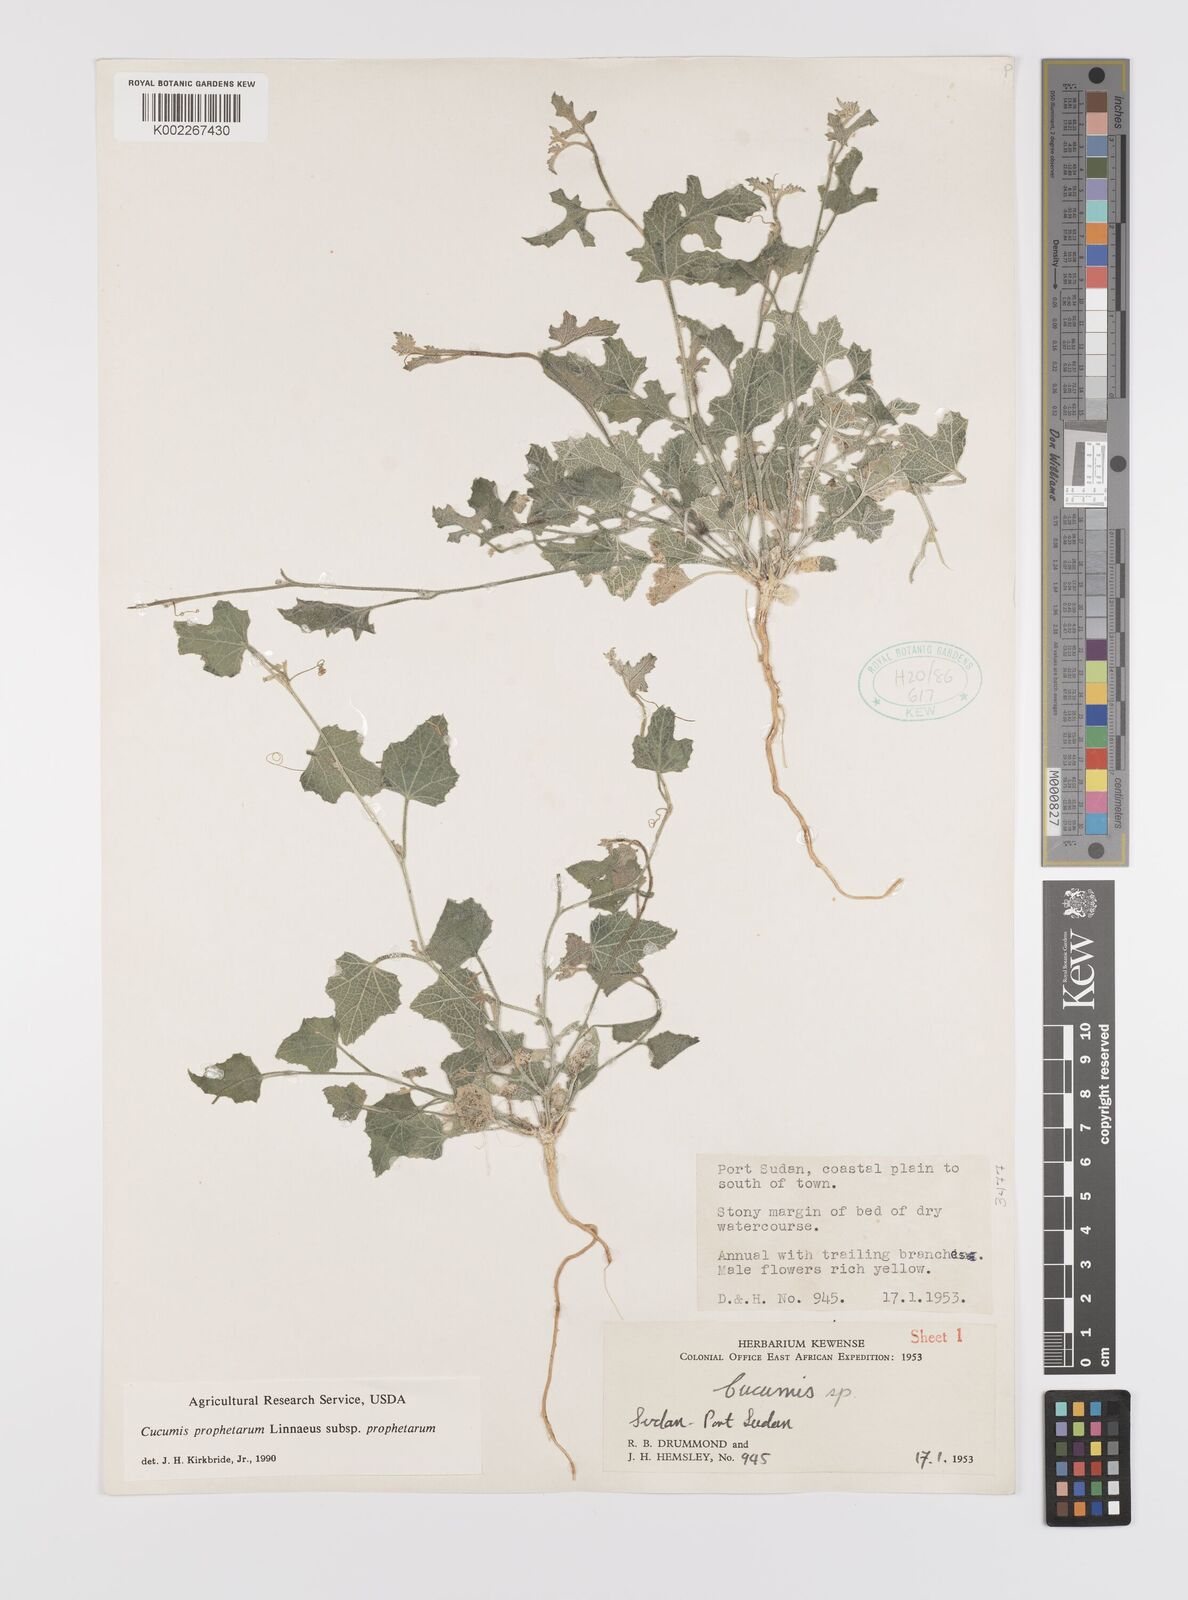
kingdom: Plantae
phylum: Tracheophyta
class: Magnoliopsida
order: Cucurbitales
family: Cucurbitaceae
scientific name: Cucurbitaceae
